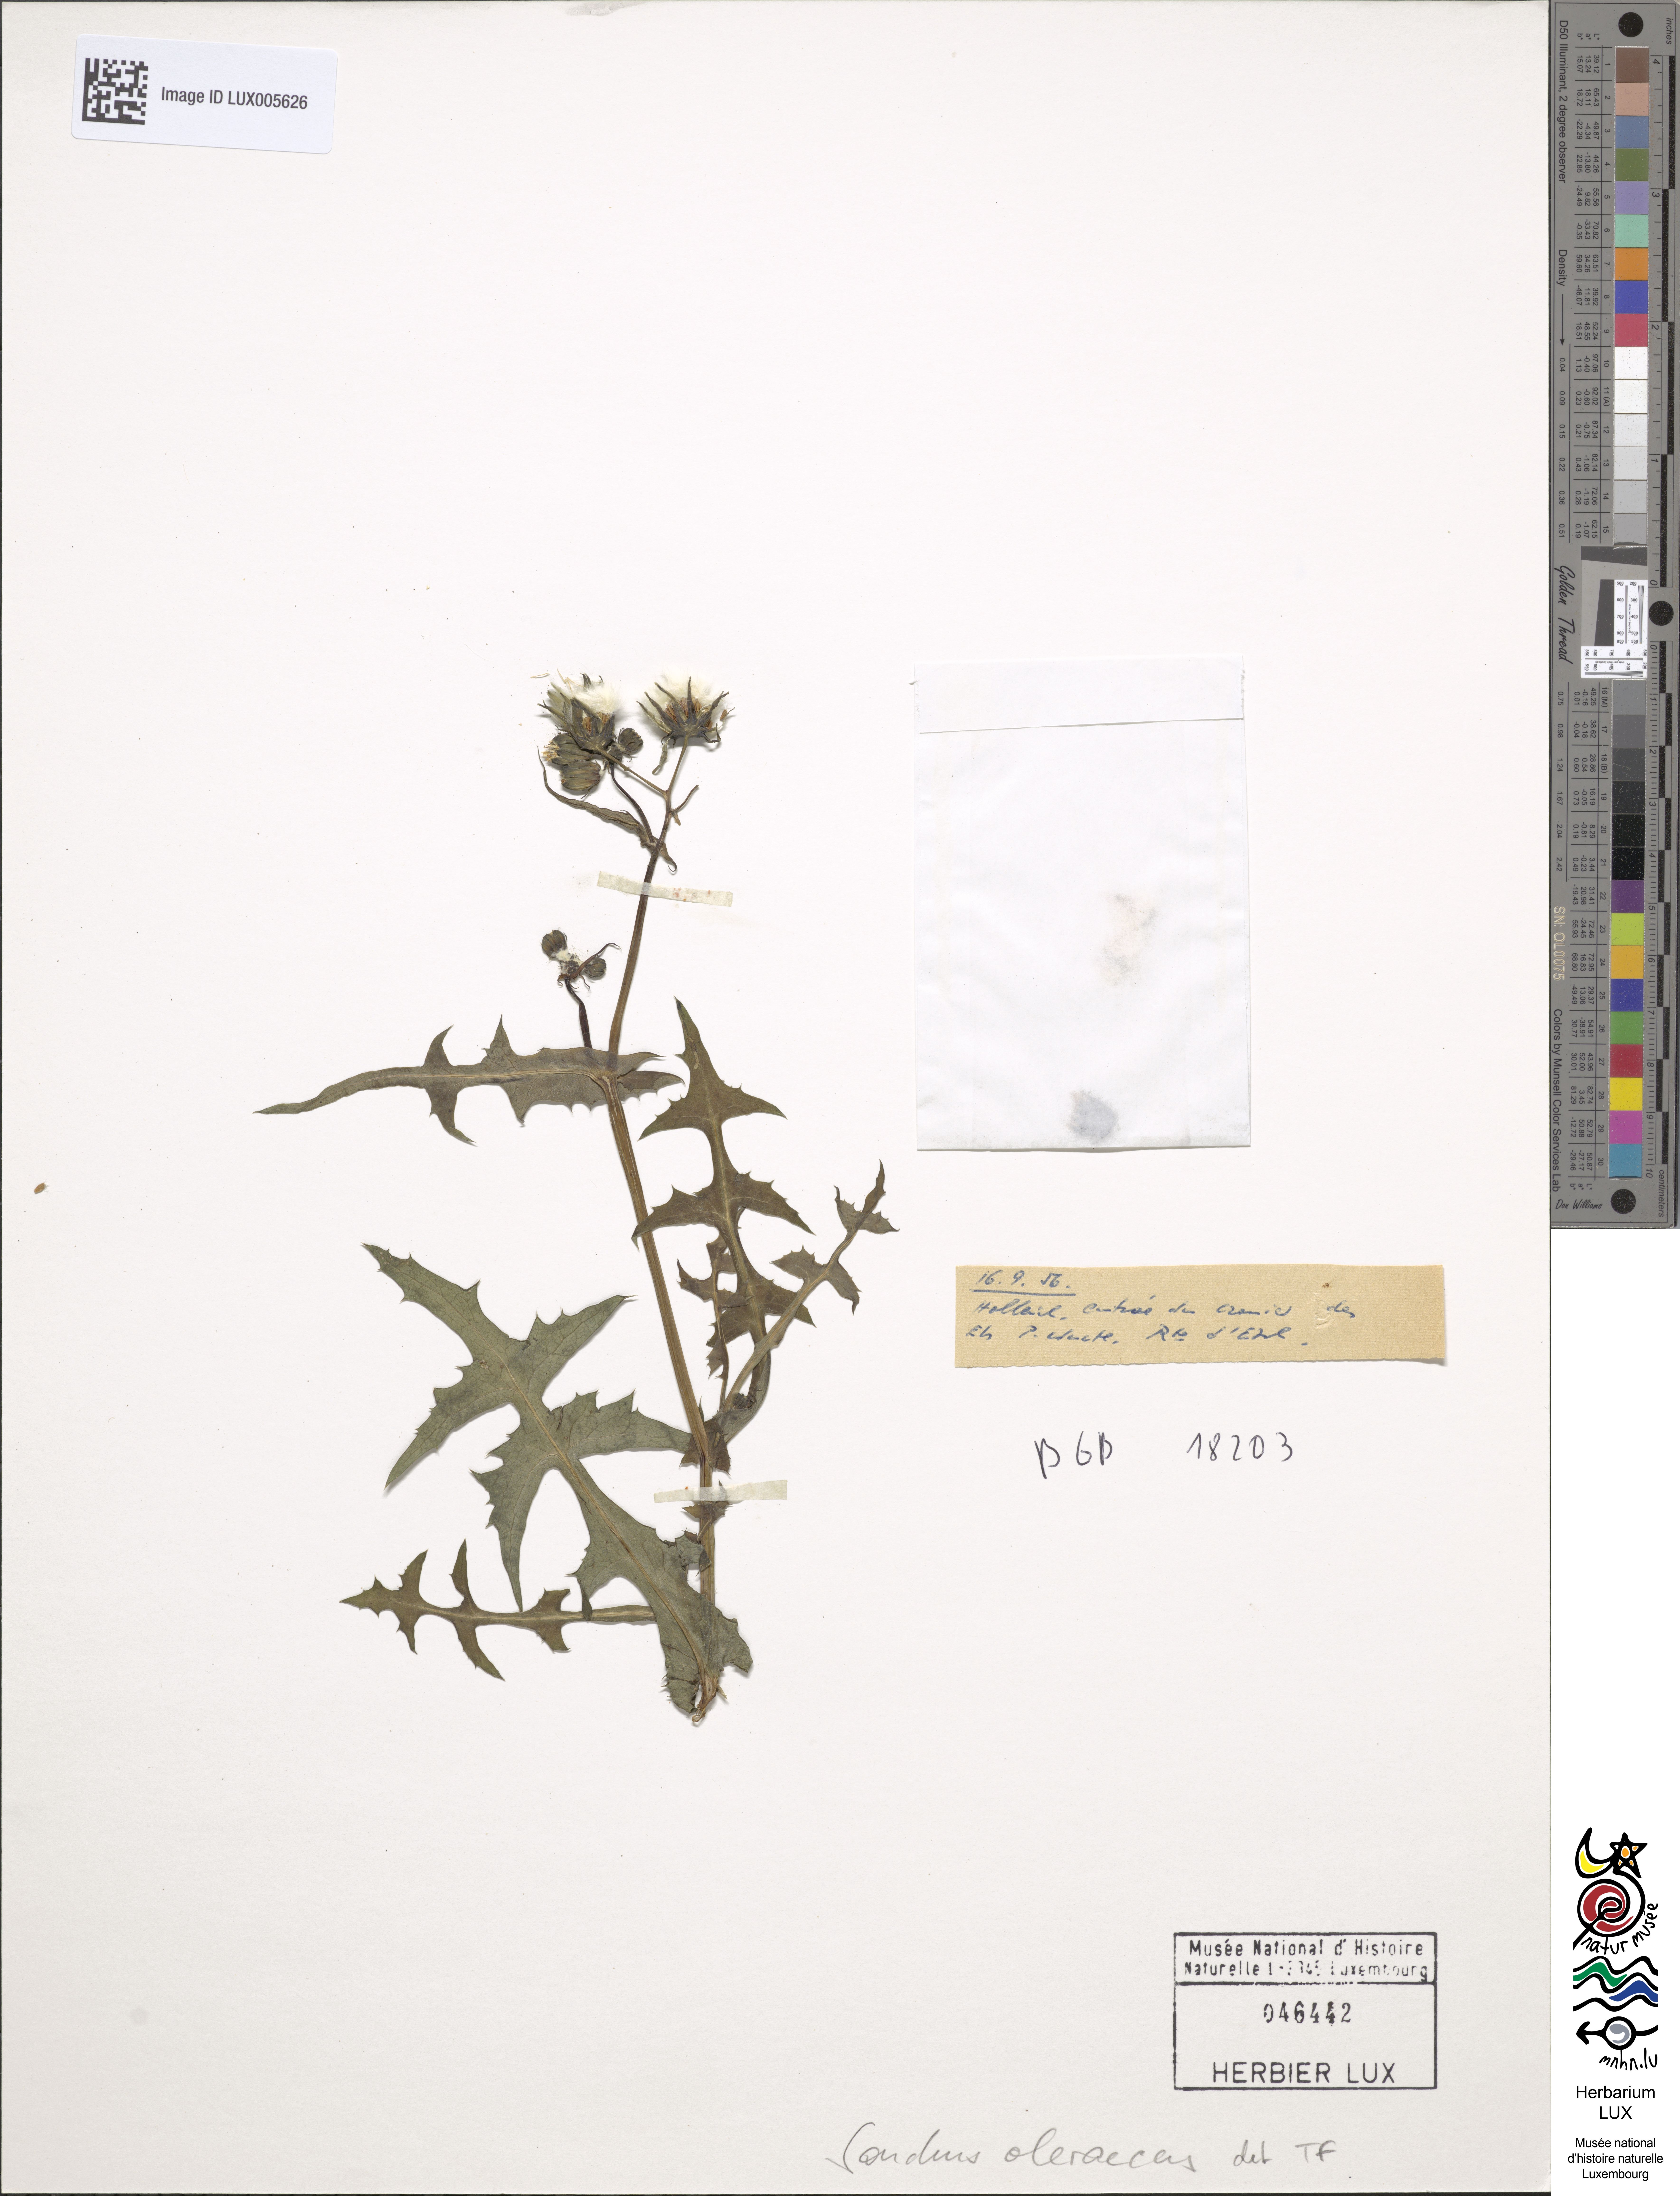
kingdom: Plantae
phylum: Tracheophyta
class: Magnoliopsida
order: Asterales
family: Asteraceae
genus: Sonchus
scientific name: Sonchus oleraceus
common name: Common sowthistle
